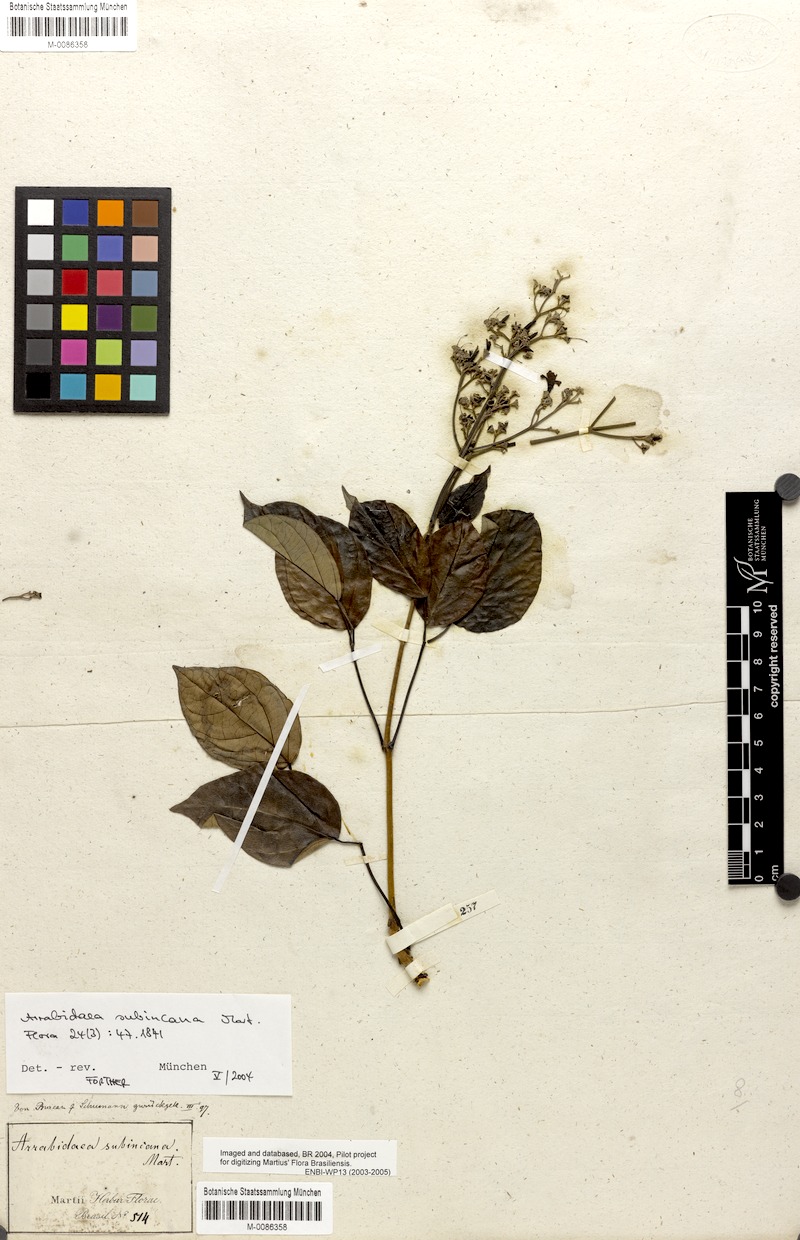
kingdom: Plantae
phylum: Tracheophyta
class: Magnoliopsida
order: Lamiales
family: Bignoniaceae
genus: Fridericia
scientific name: Fridericia subincana
